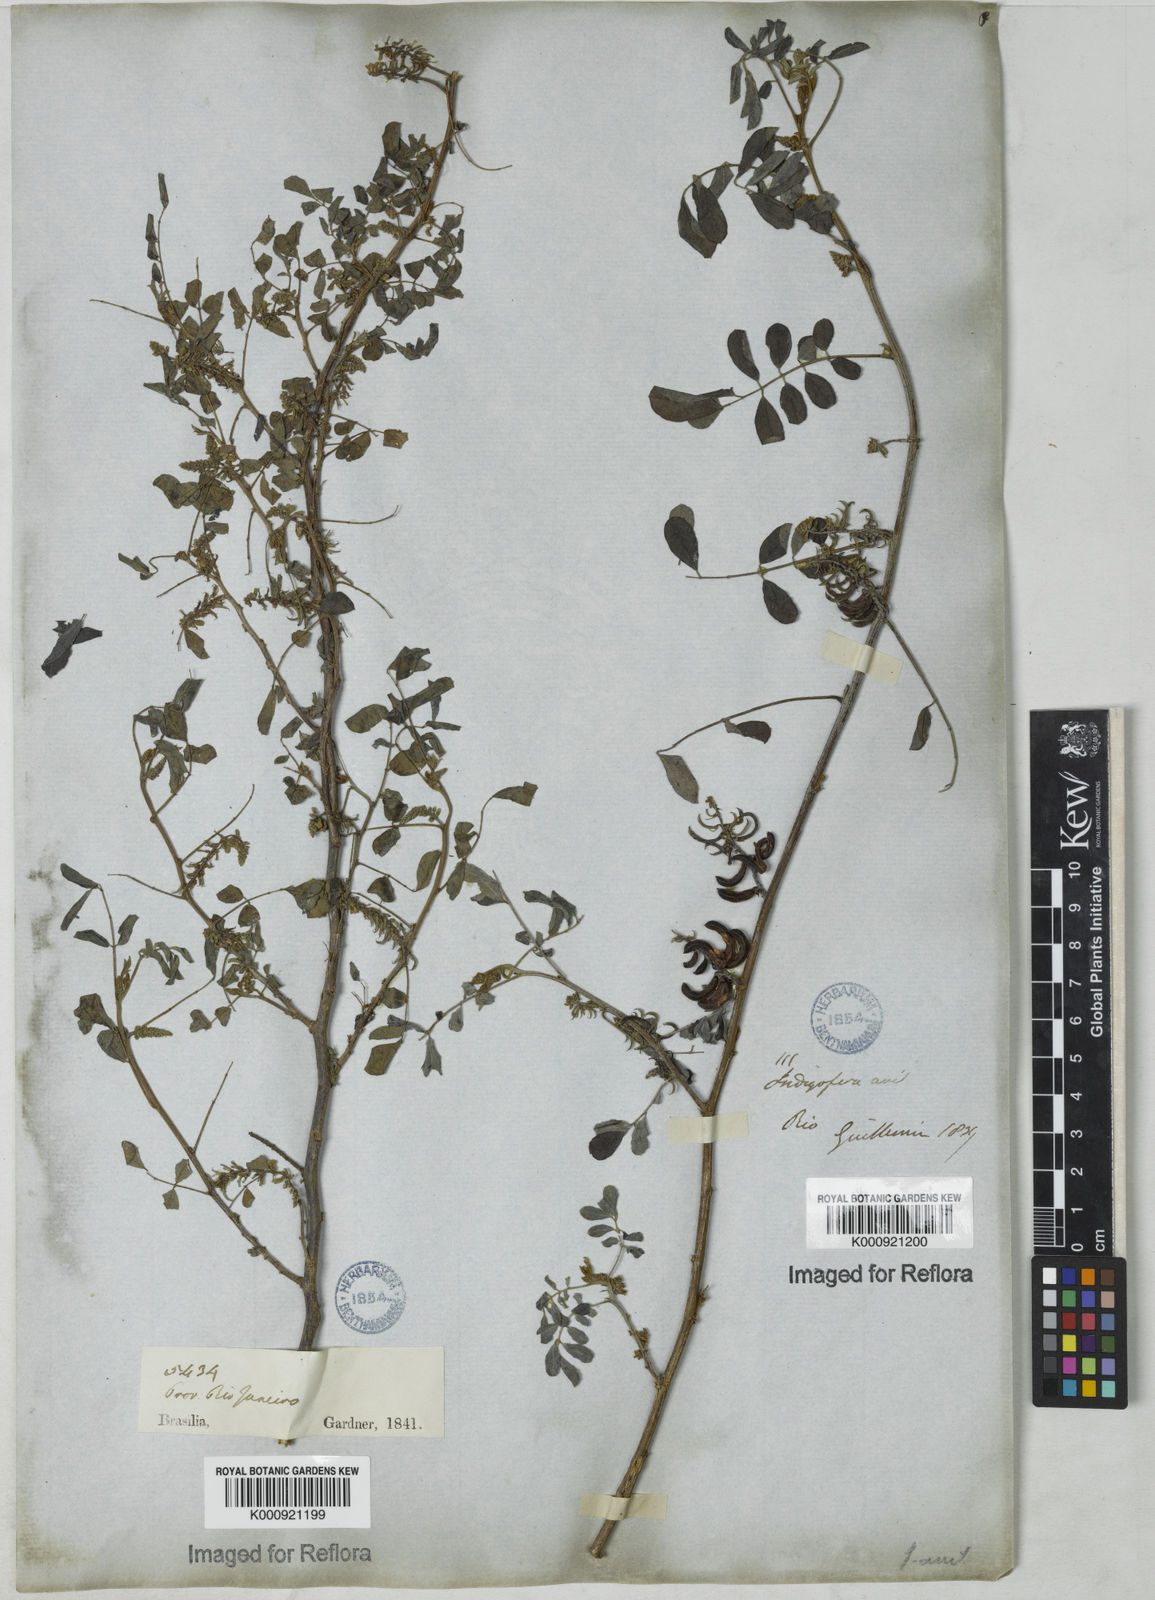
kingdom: Plantae
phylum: Tracheophyta
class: Magnoliopsida
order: Fabales
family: Fabaceae
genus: Indigofera
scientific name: Indigofera suffruticosa
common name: Anil de pasto
